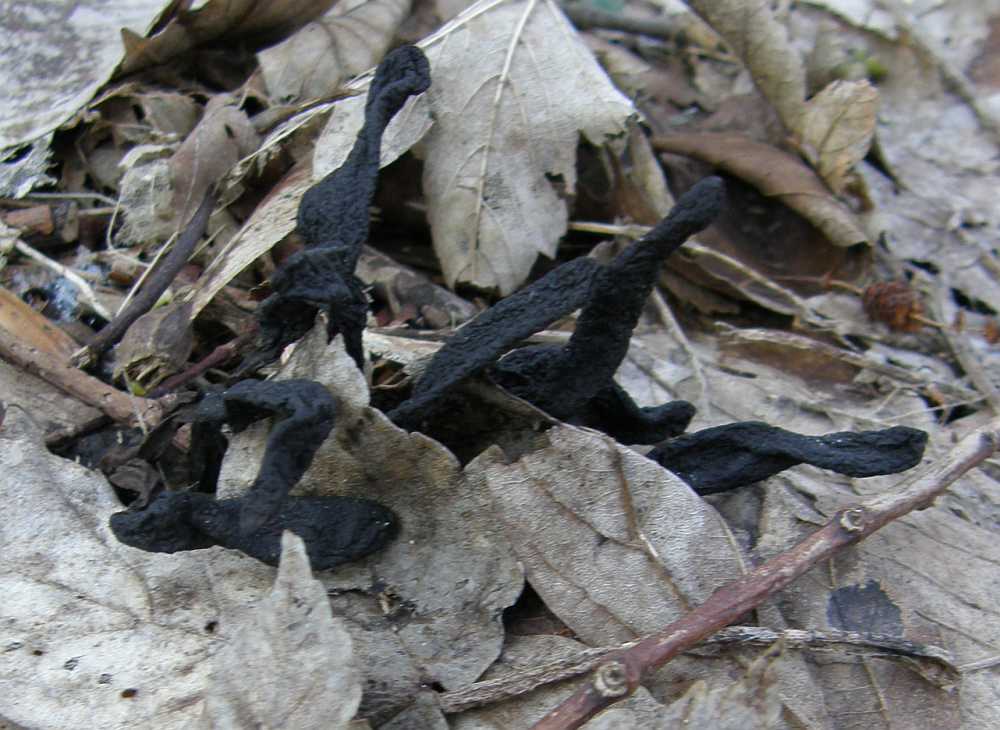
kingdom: Fungi
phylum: Ascomycota
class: Sordariomycetes
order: Xylariales
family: Xylariaceae
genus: Xylaria
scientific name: Xylaria longipes
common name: slank stødsvamp
